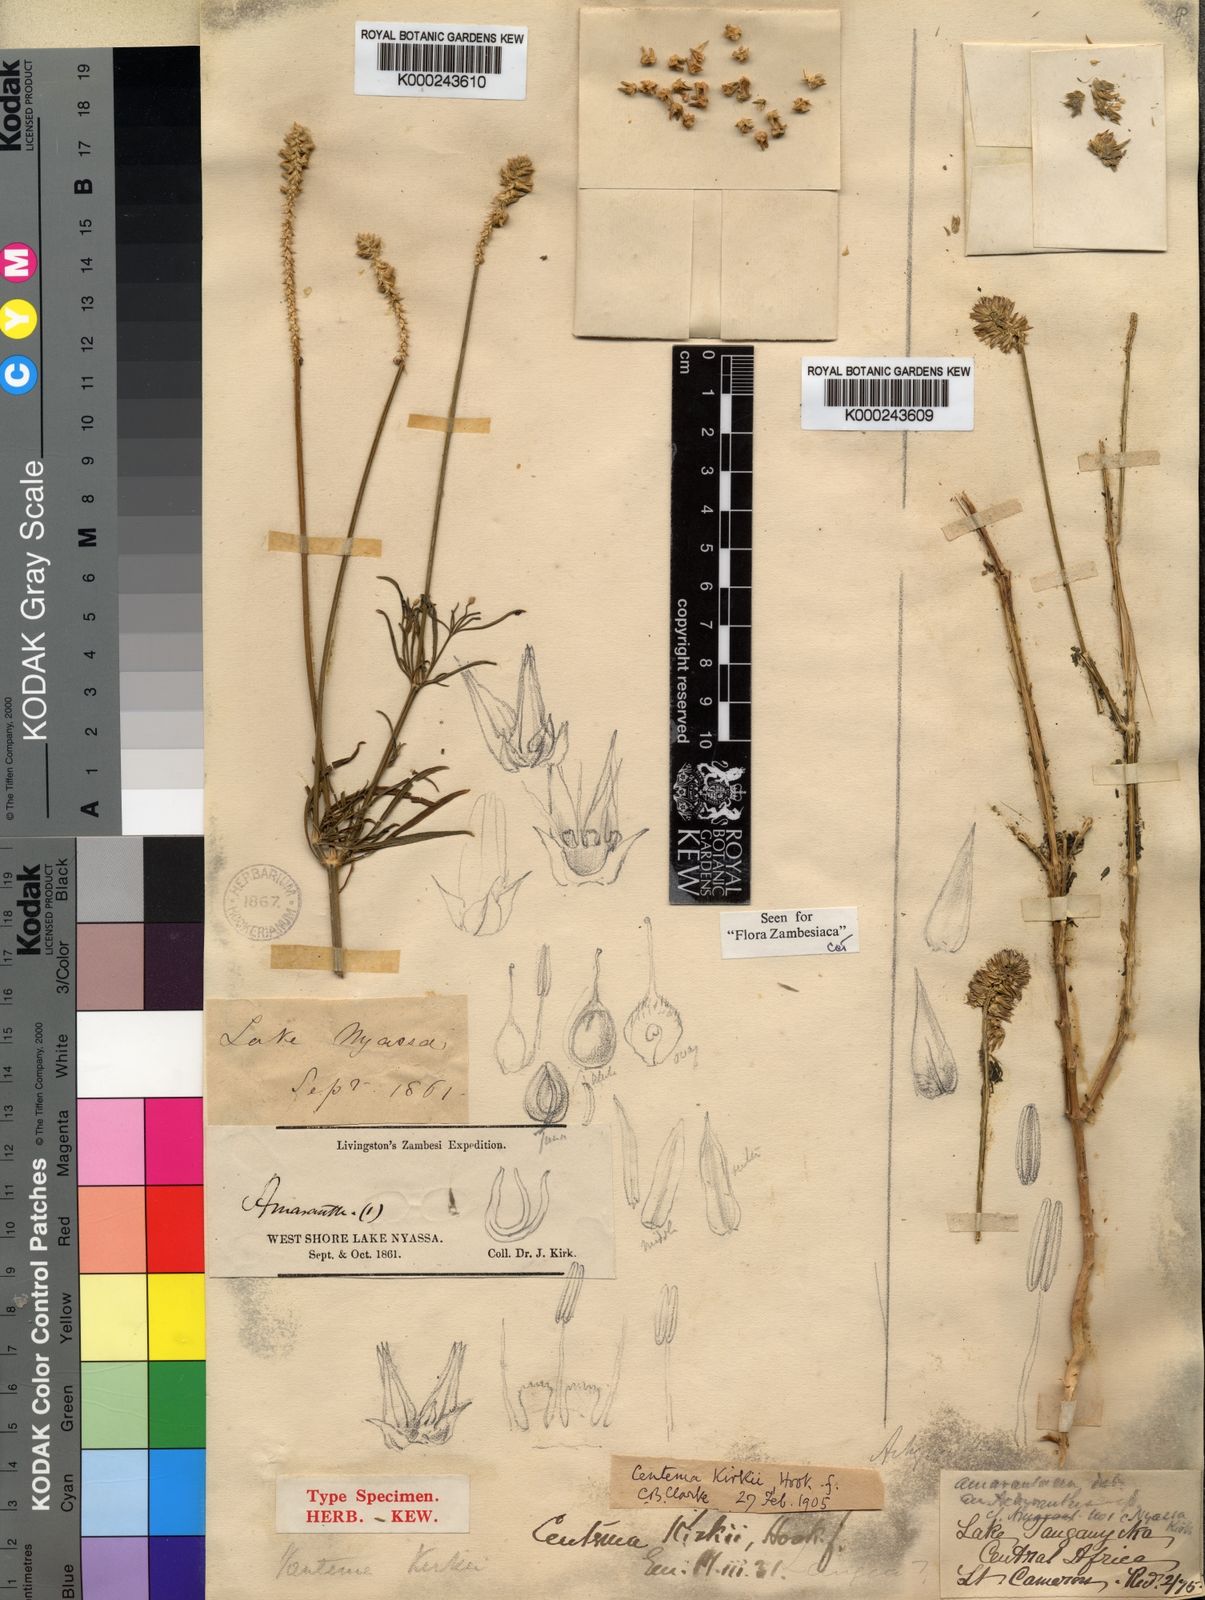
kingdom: Plantae
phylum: Tracheophyta
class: Magnoliopsida
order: Caryophyllales
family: Amaranthaceae
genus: Centemopsis
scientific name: Centemopsis kirkii
